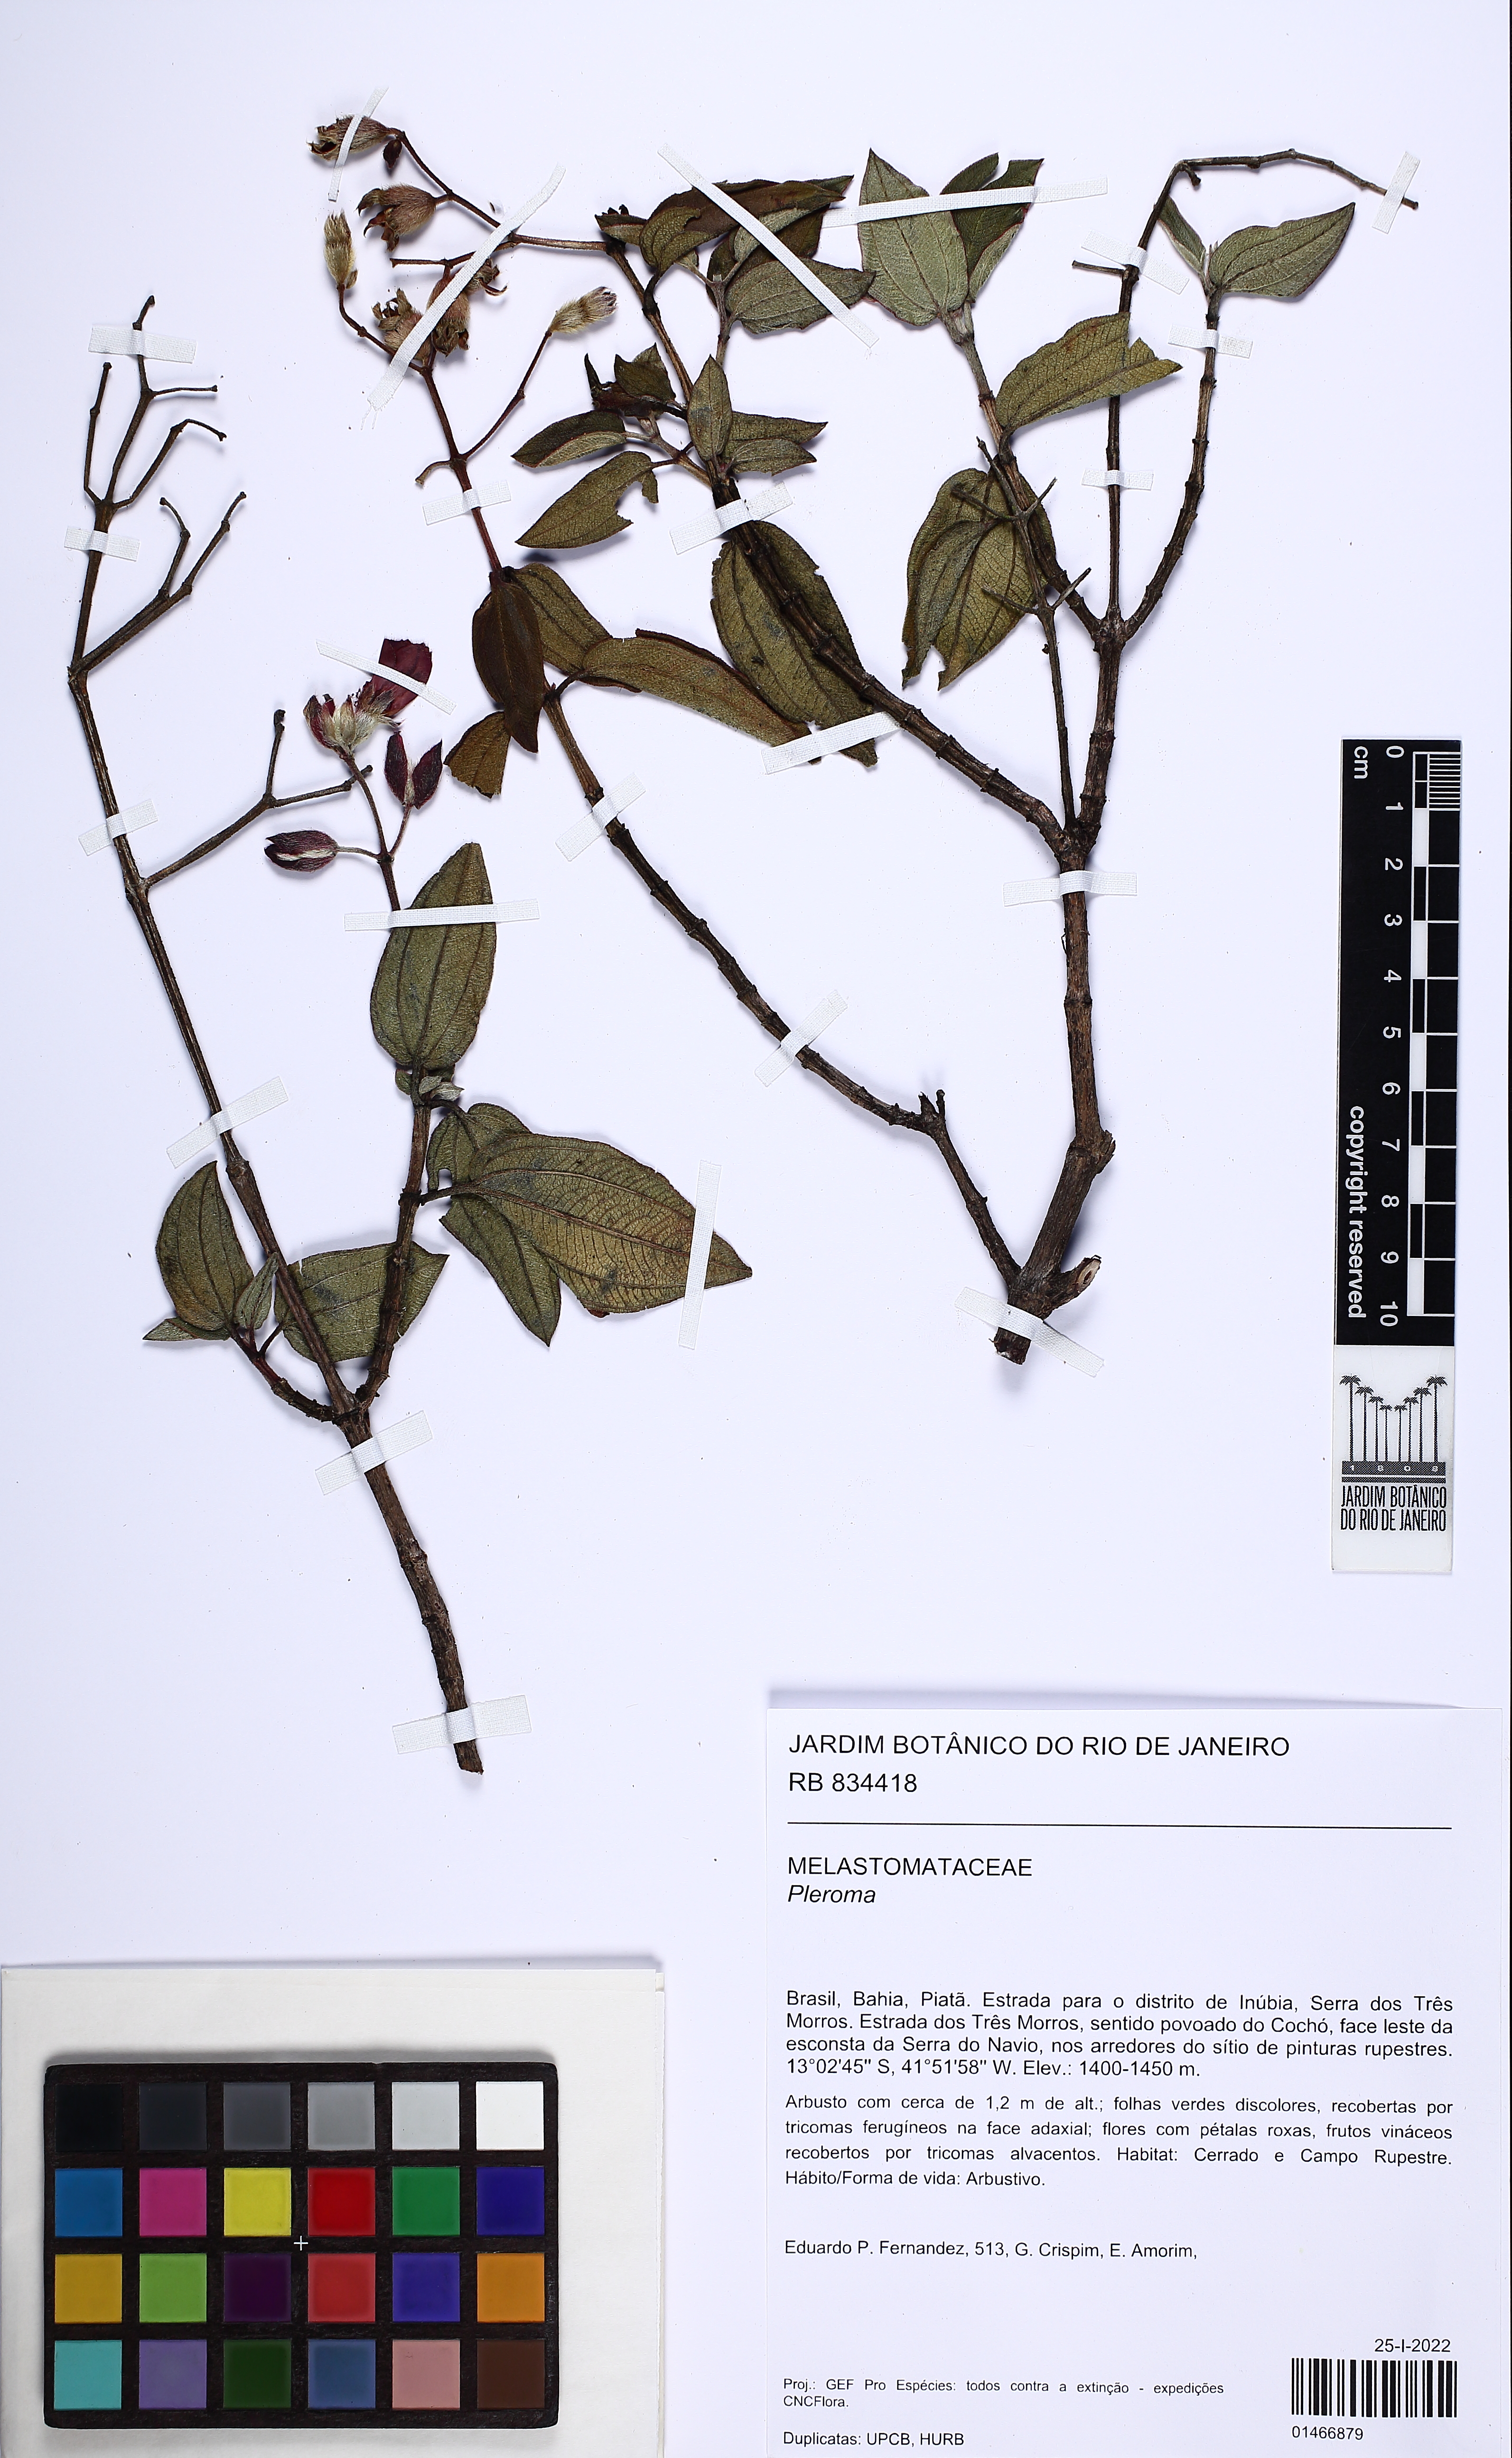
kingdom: Plantae
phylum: Tracheophyta
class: Magnoliopsida
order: Myrtales
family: Melastomataceae
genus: Pleroma
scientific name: Pleroma
